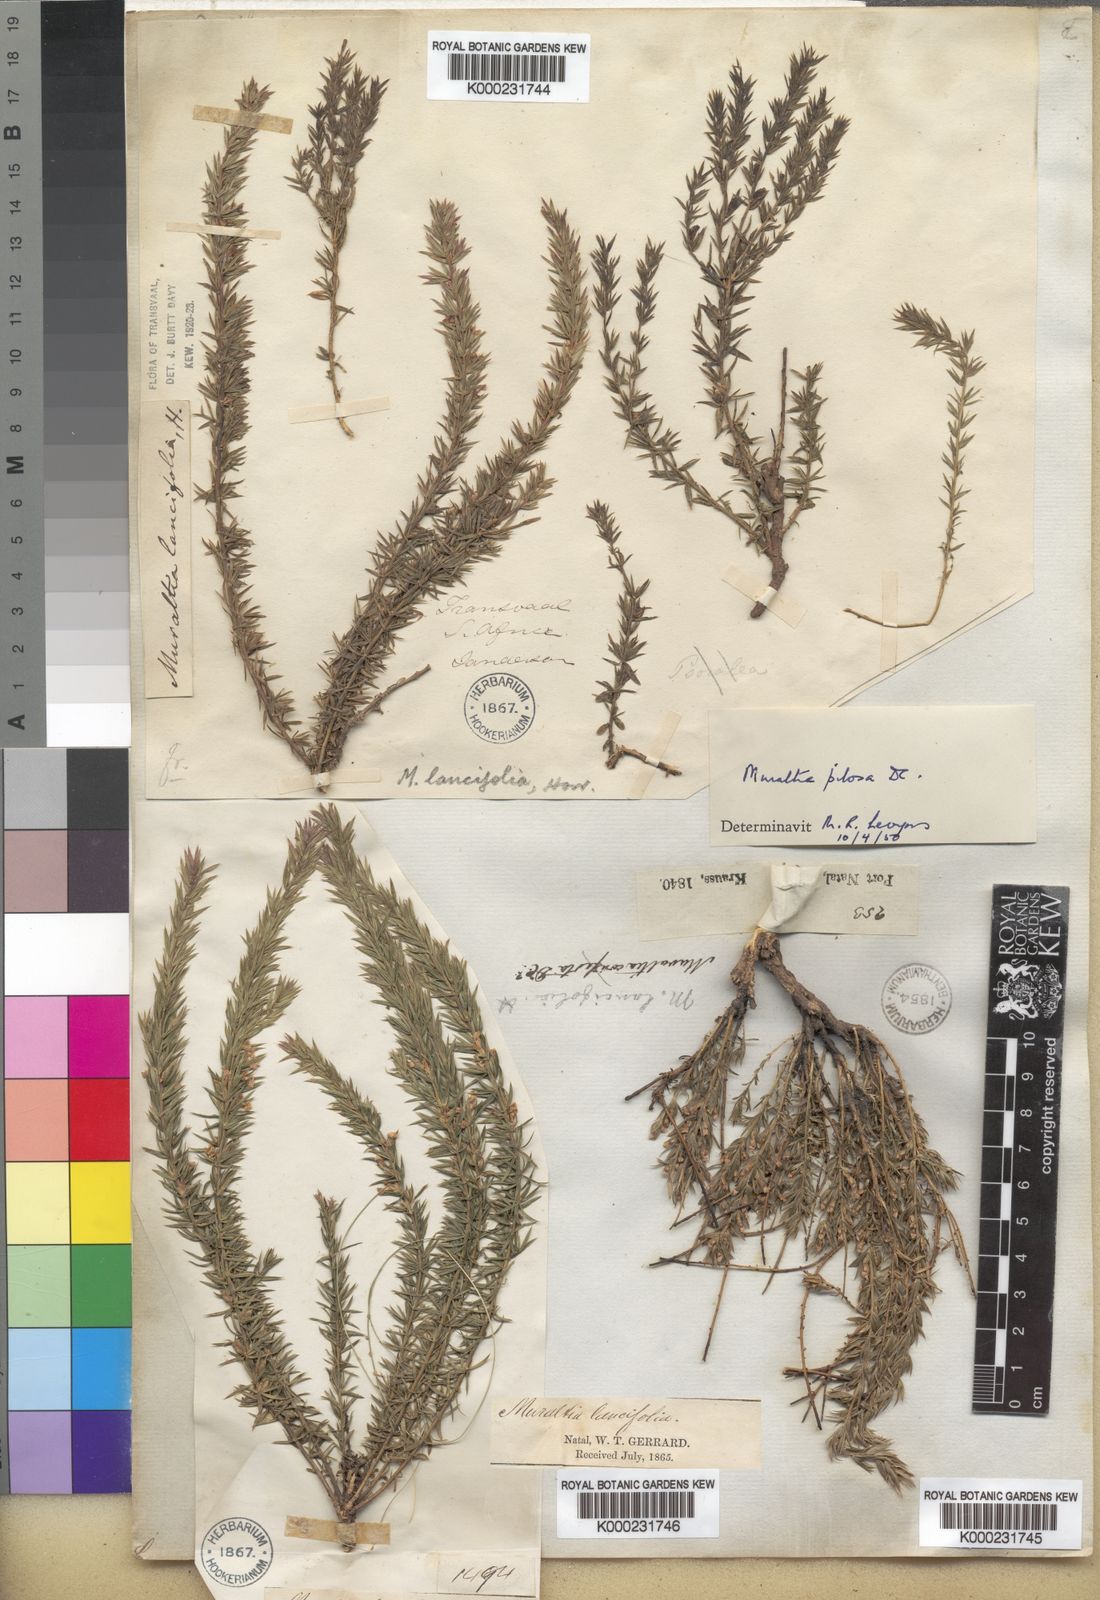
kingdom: Plantae
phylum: Tracheophyta
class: Magnoliopsida
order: Fabales
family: Polygalaceae
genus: Muraltia
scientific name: Muraltia lancifolia
